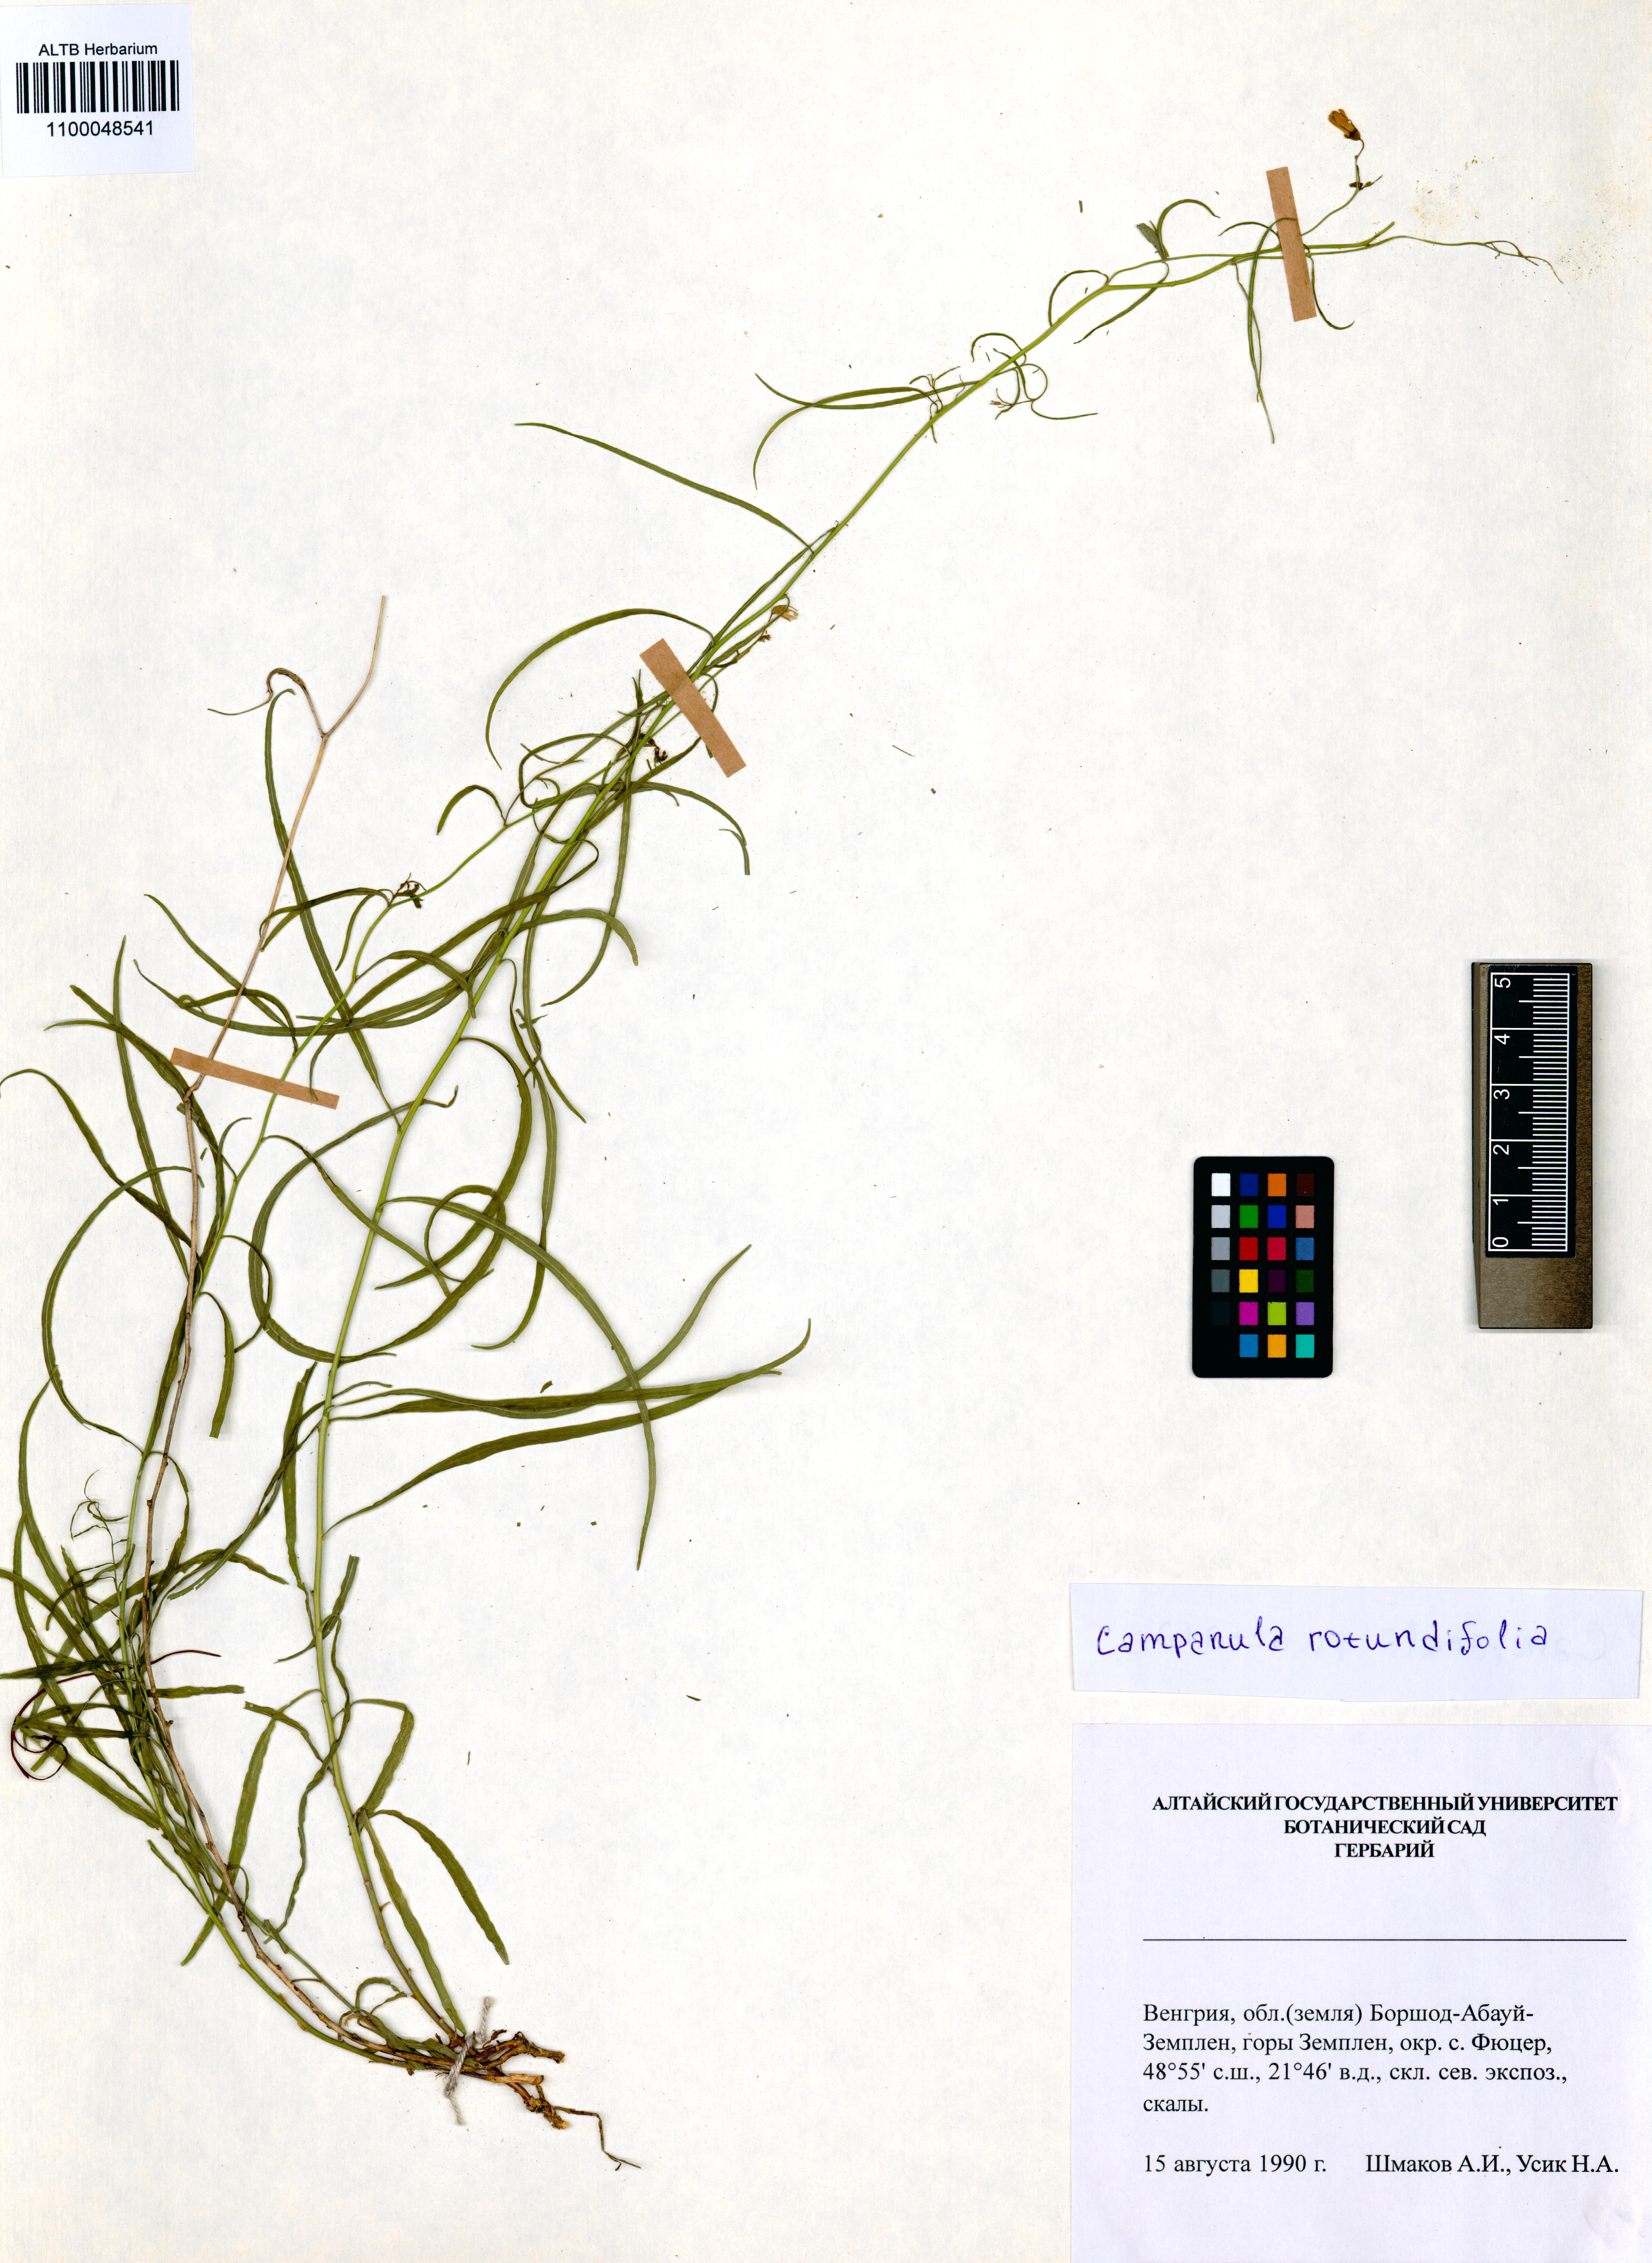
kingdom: Plantae
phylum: Tracheophyta
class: Magnoliopsida
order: Asterales
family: Campanulaceae
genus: Campanula
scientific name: Campanula rotundifolia
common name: Harebell
